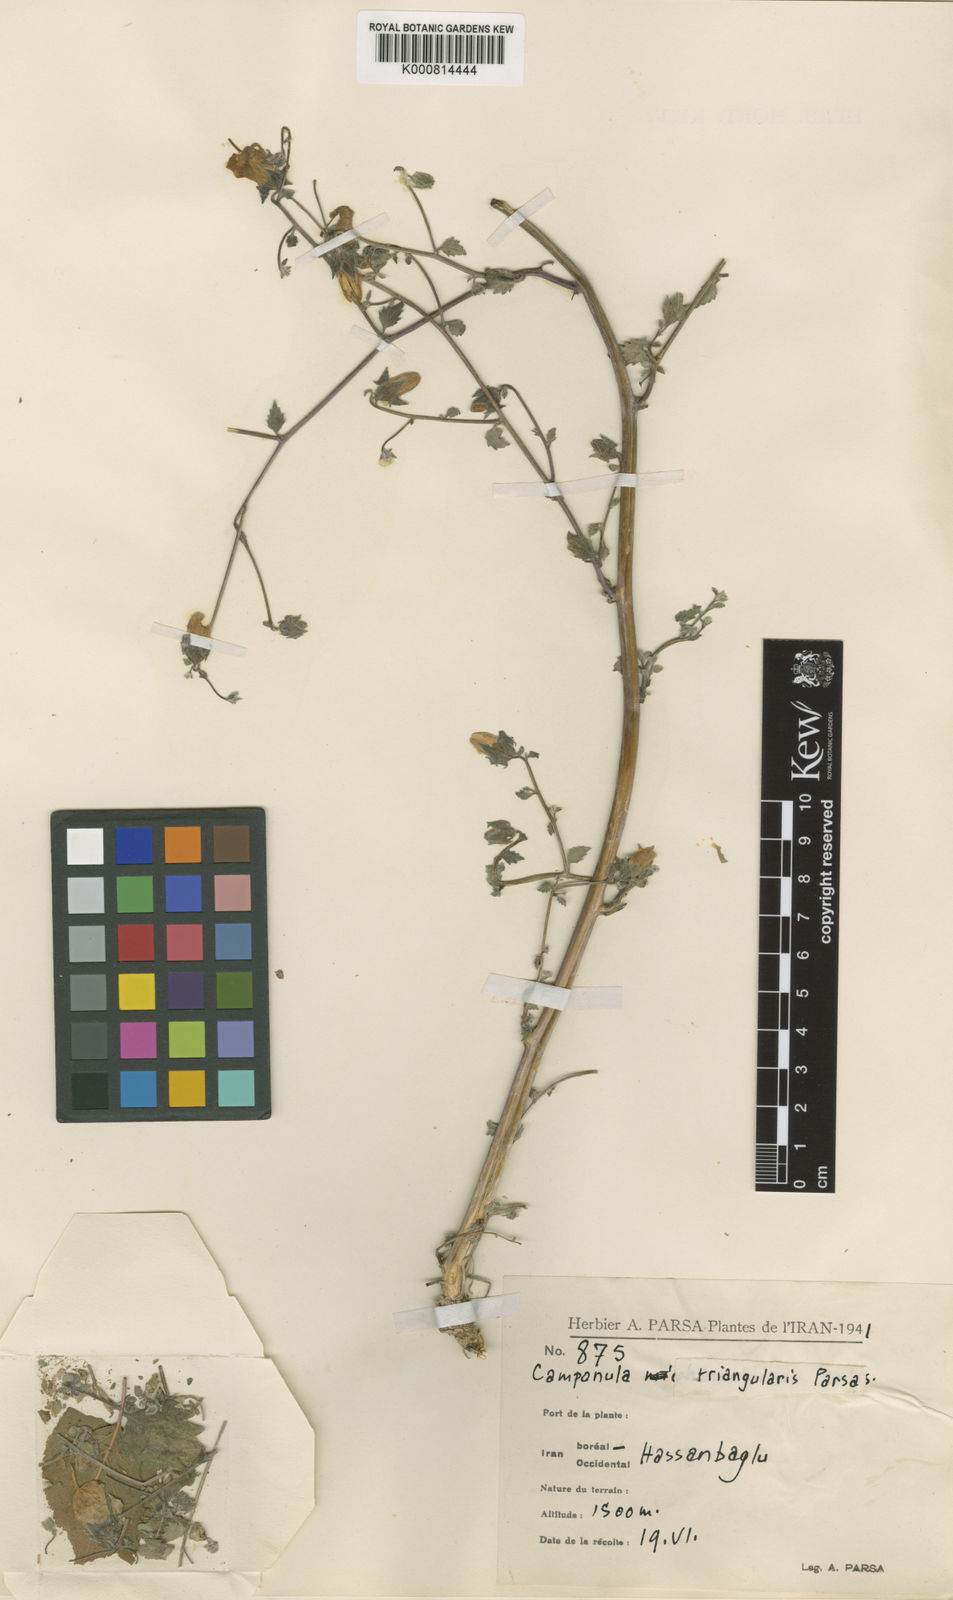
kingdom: Plantae
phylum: Tracheophyta
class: Magnoliopsida
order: Asterales
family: Campanulaceae
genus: Campanula
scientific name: Campanula armena
